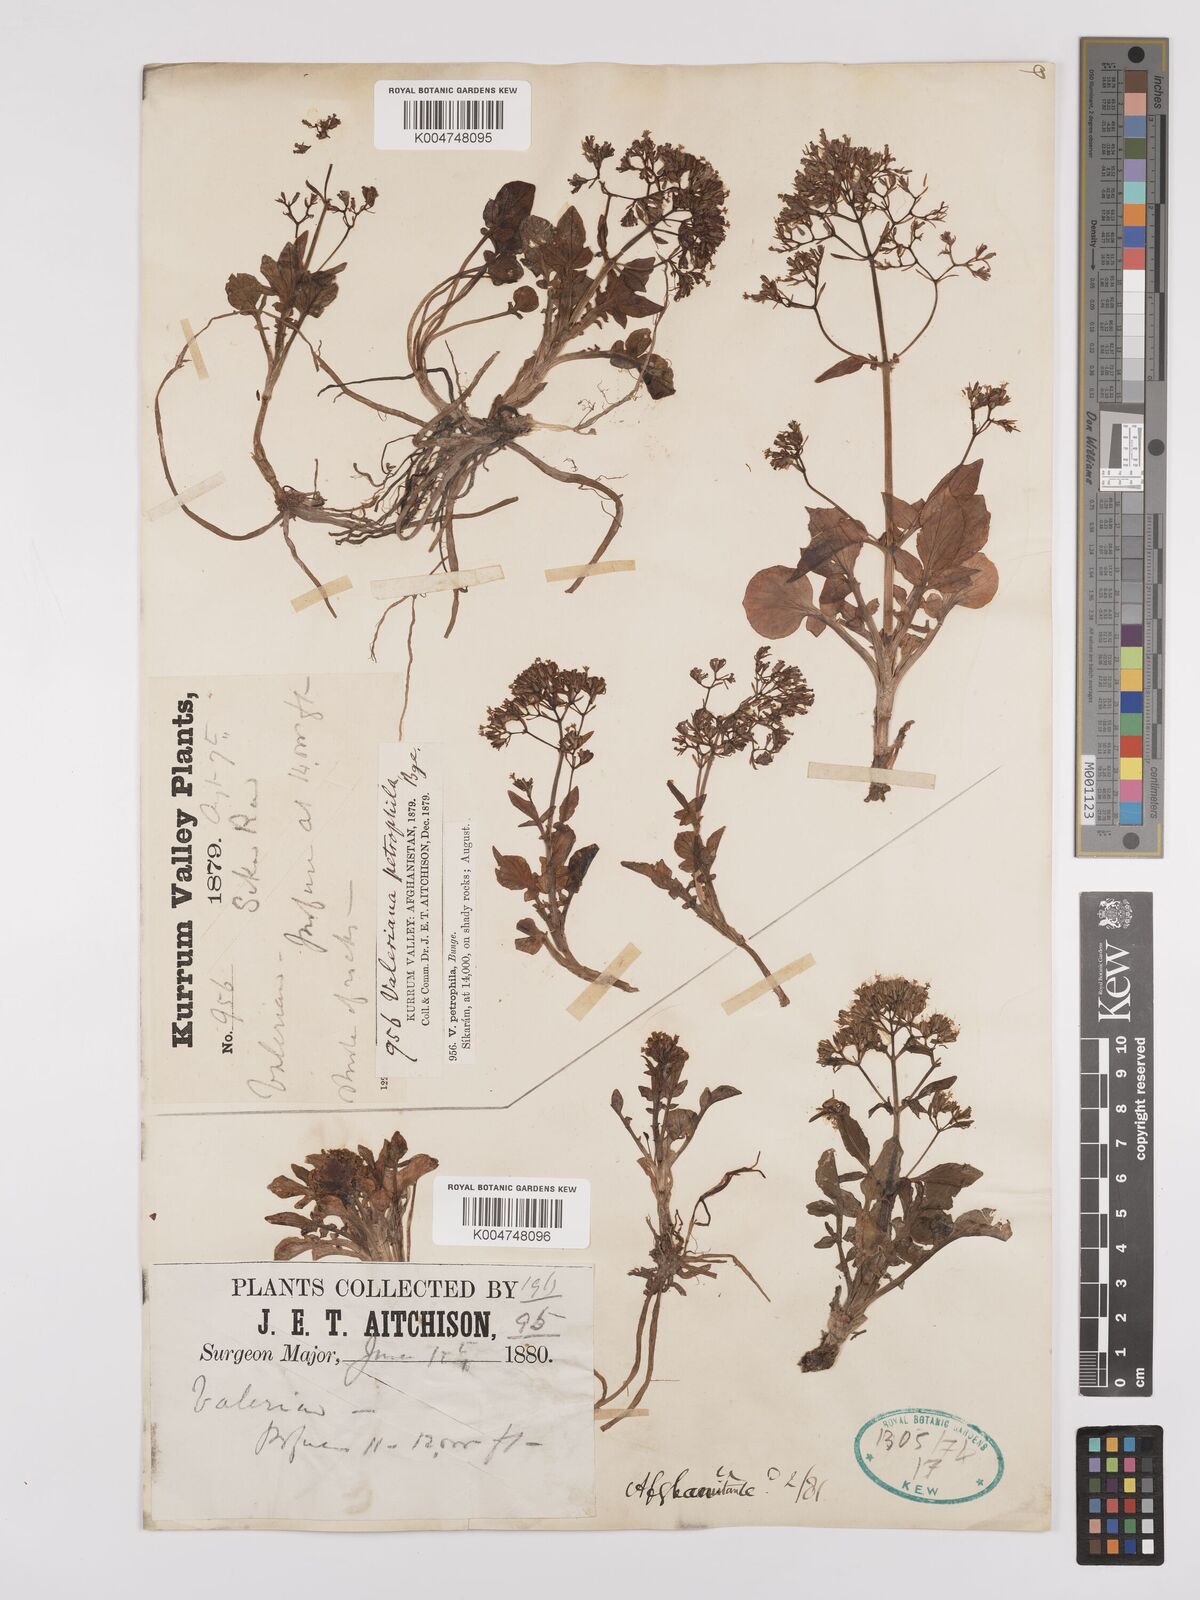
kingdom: Plantae
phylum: Tracheophyta
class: Magnoliopsida
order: Dipsacales
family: Caprifoliaceae
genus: Valeriana
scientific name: Valeriana petrophila
